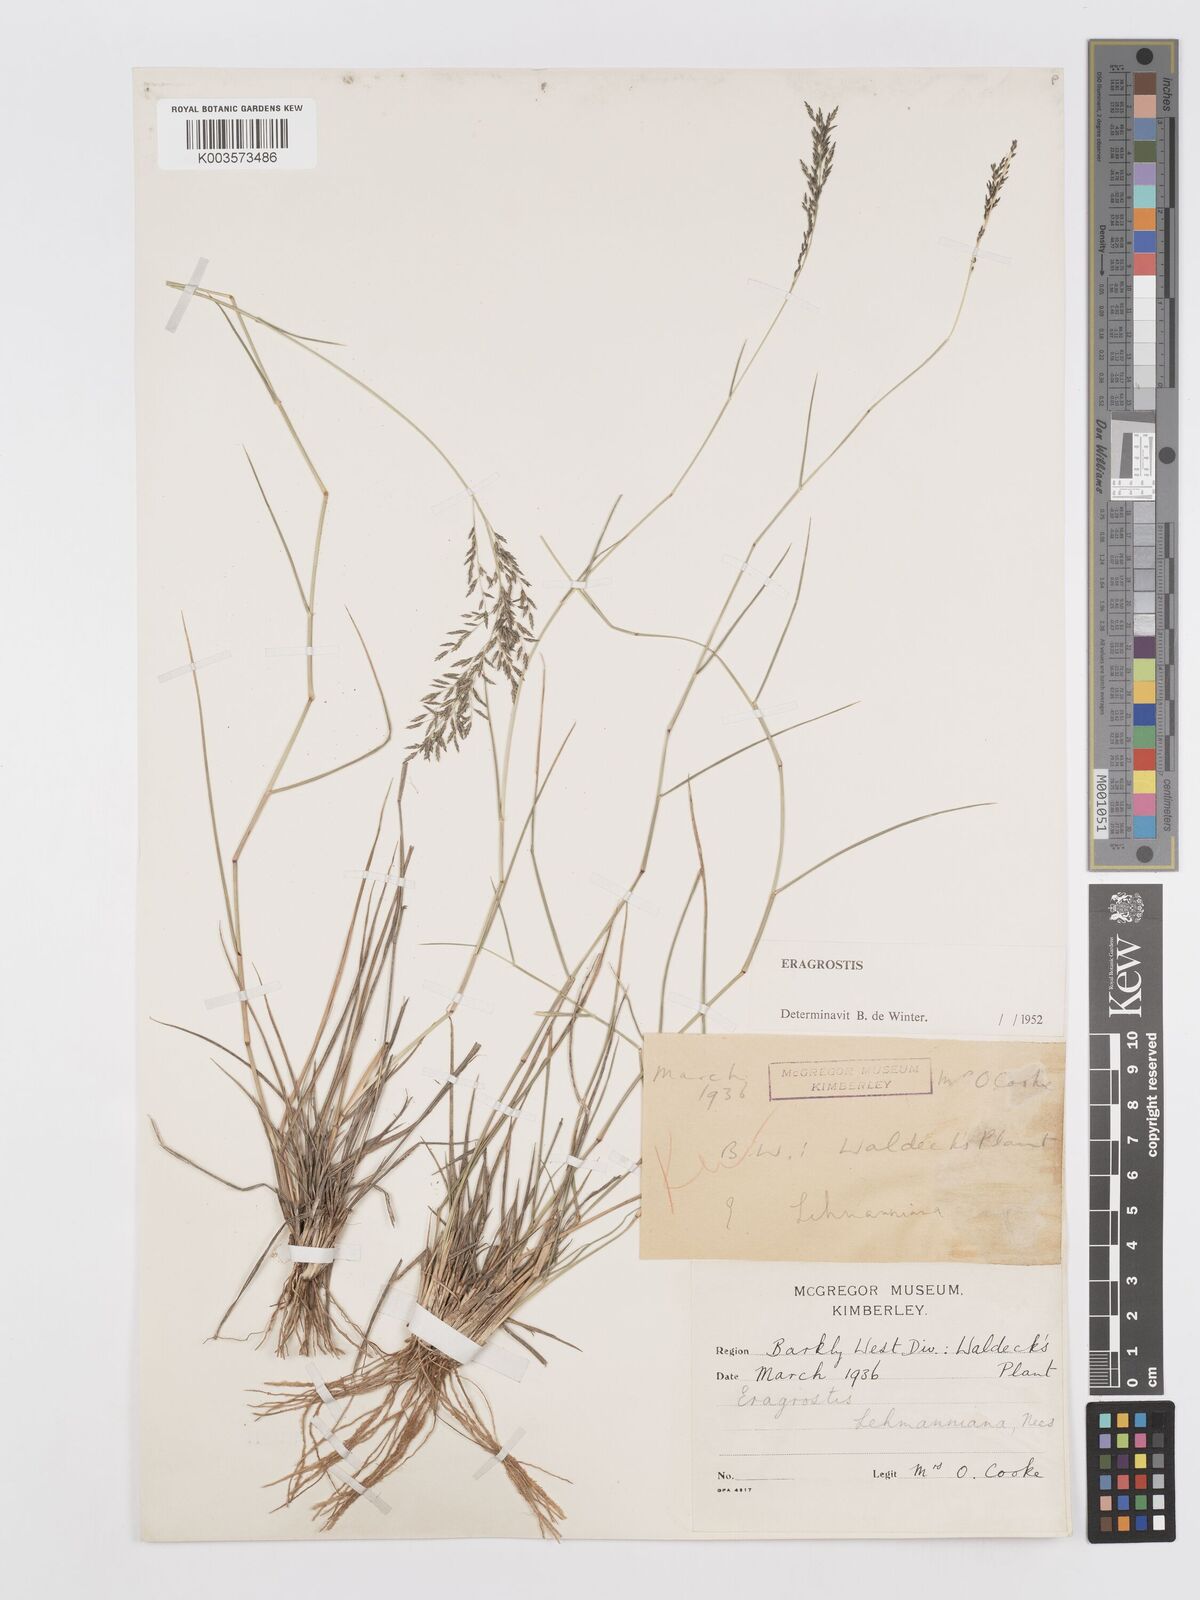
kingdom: Plantae
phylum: Tracheophyta
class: Liliopsida
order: Poales
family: Poaceae
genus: Eragrostis
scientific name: Eragrostis lehmanniana
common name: Lehmann lovegrass
